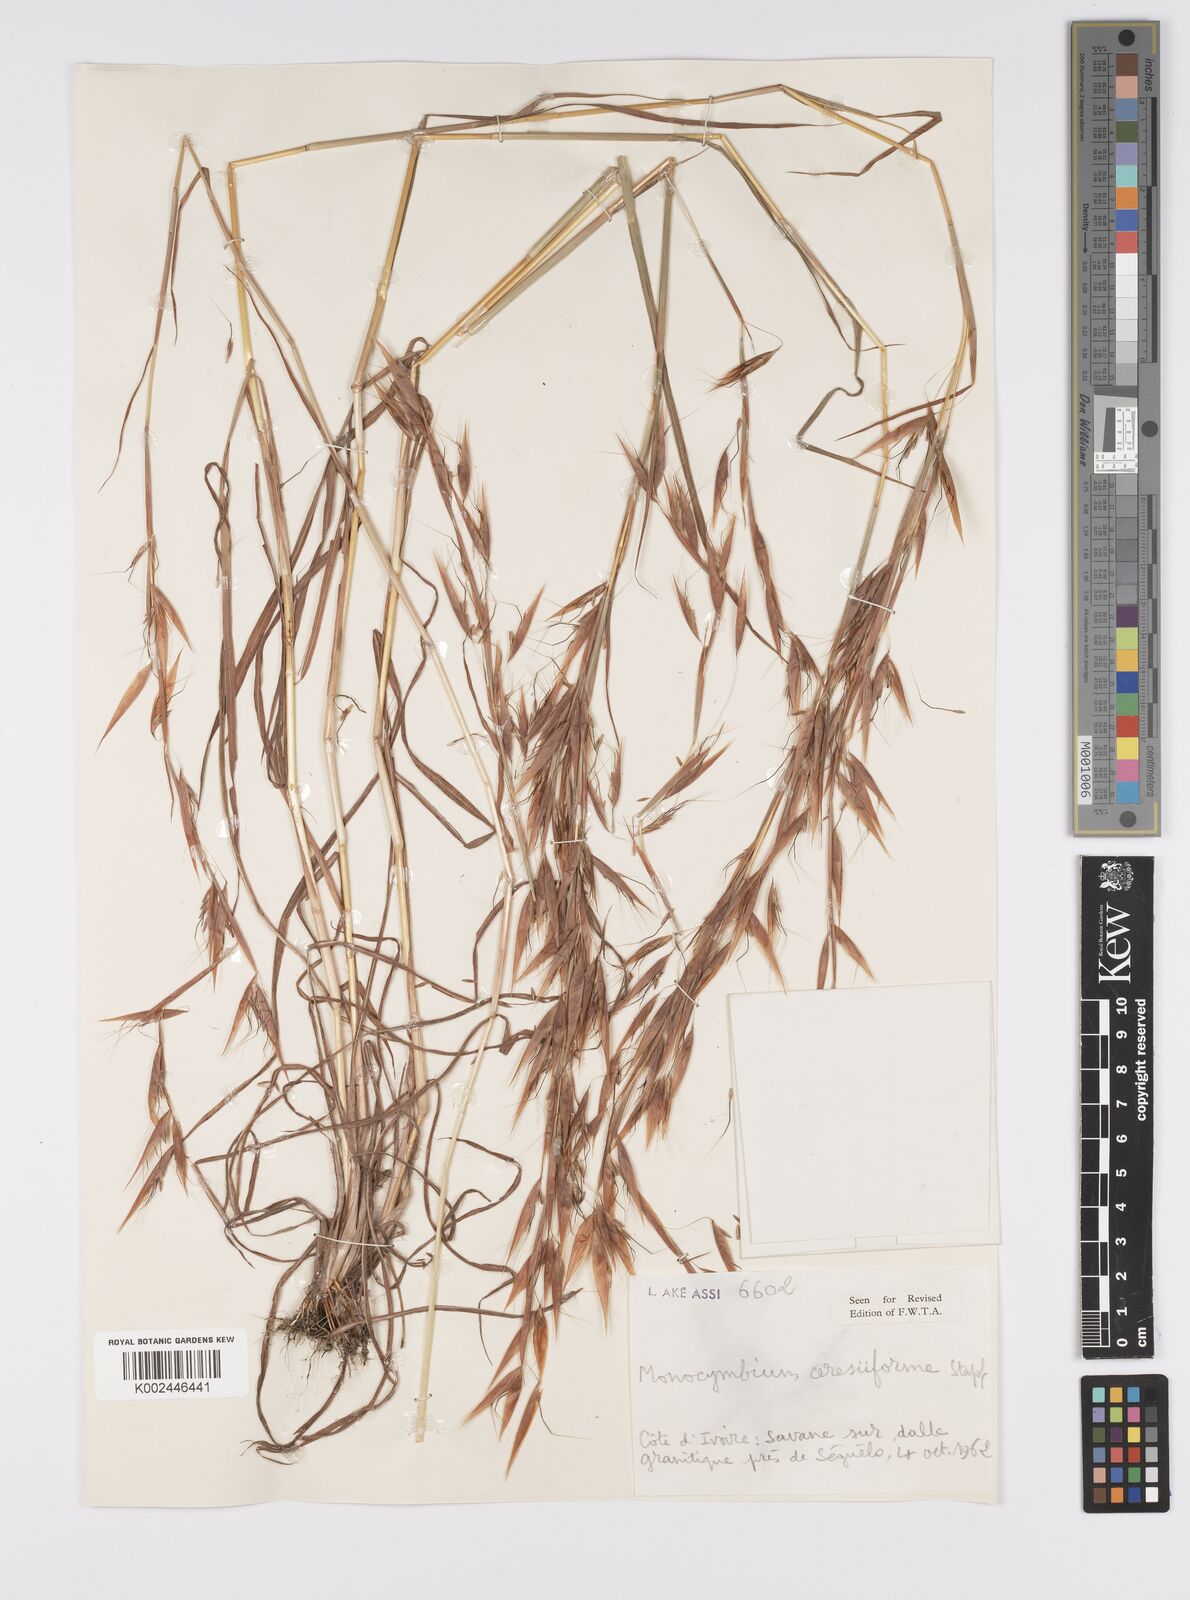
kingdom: Plantae
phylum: Tracheophyta
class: Liliopsida
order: Poales
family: Poaceae
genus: Monocymbium
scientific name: Monocymbium ceresiiforme
